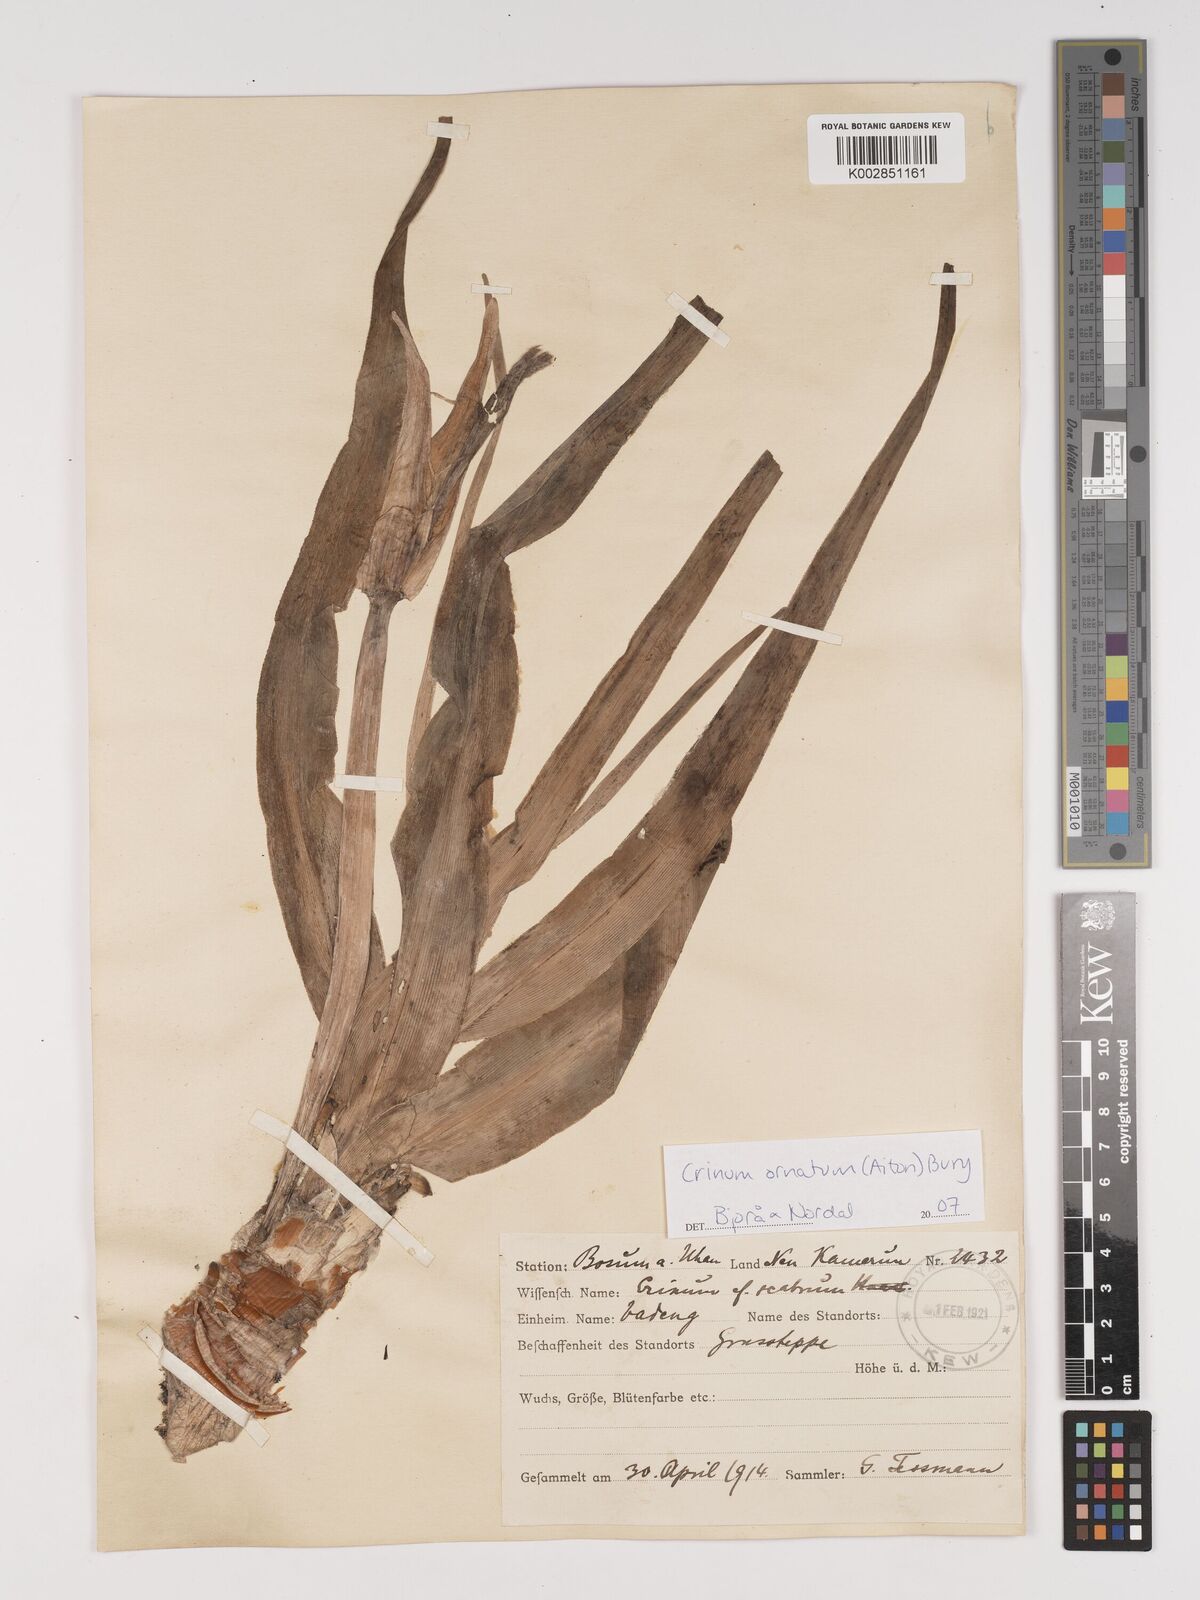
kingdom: Plantae
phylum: Tracheophyta
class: Liliopsida
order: Asparagales
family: Amaryllidaceae
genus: Crinum
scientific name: Crinum ornatum
